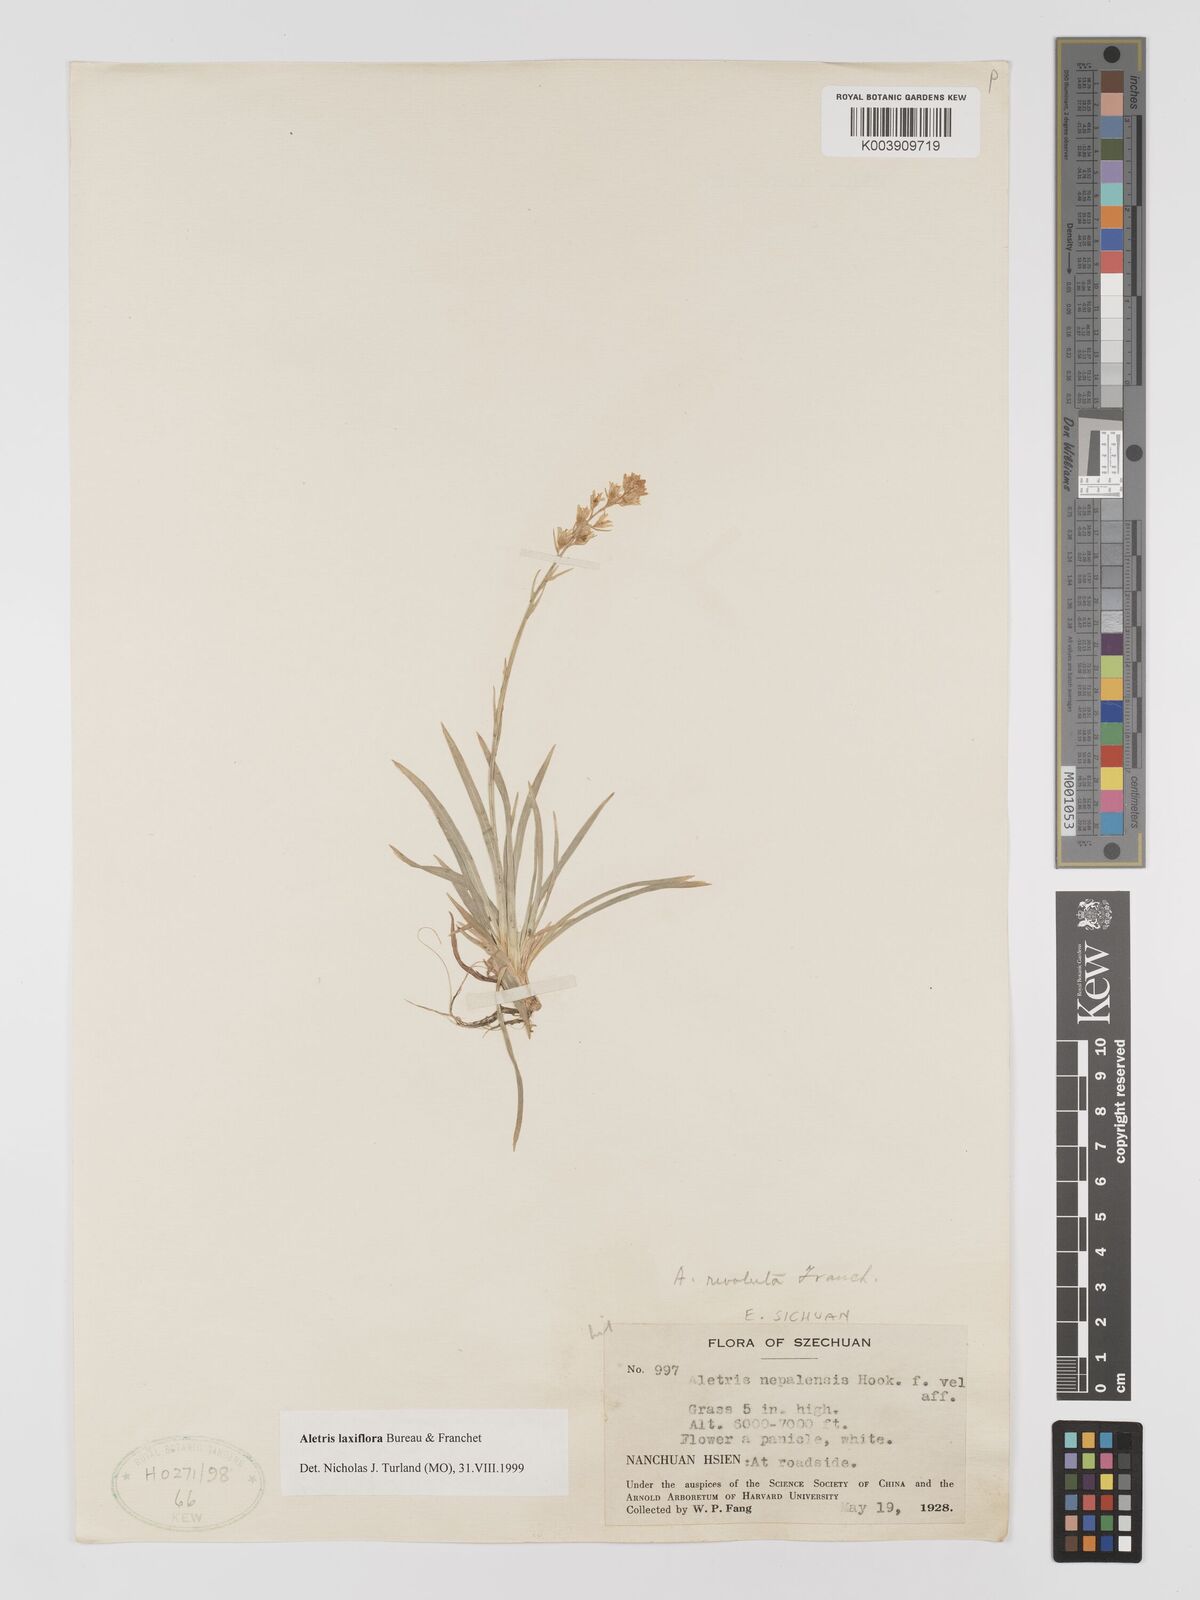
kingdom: Plantae
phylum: Tracheophyta
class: Liliopsida
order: Dioscoreales
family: Nartheciaceae
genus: Aletris
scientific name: Aletris laxiflora
